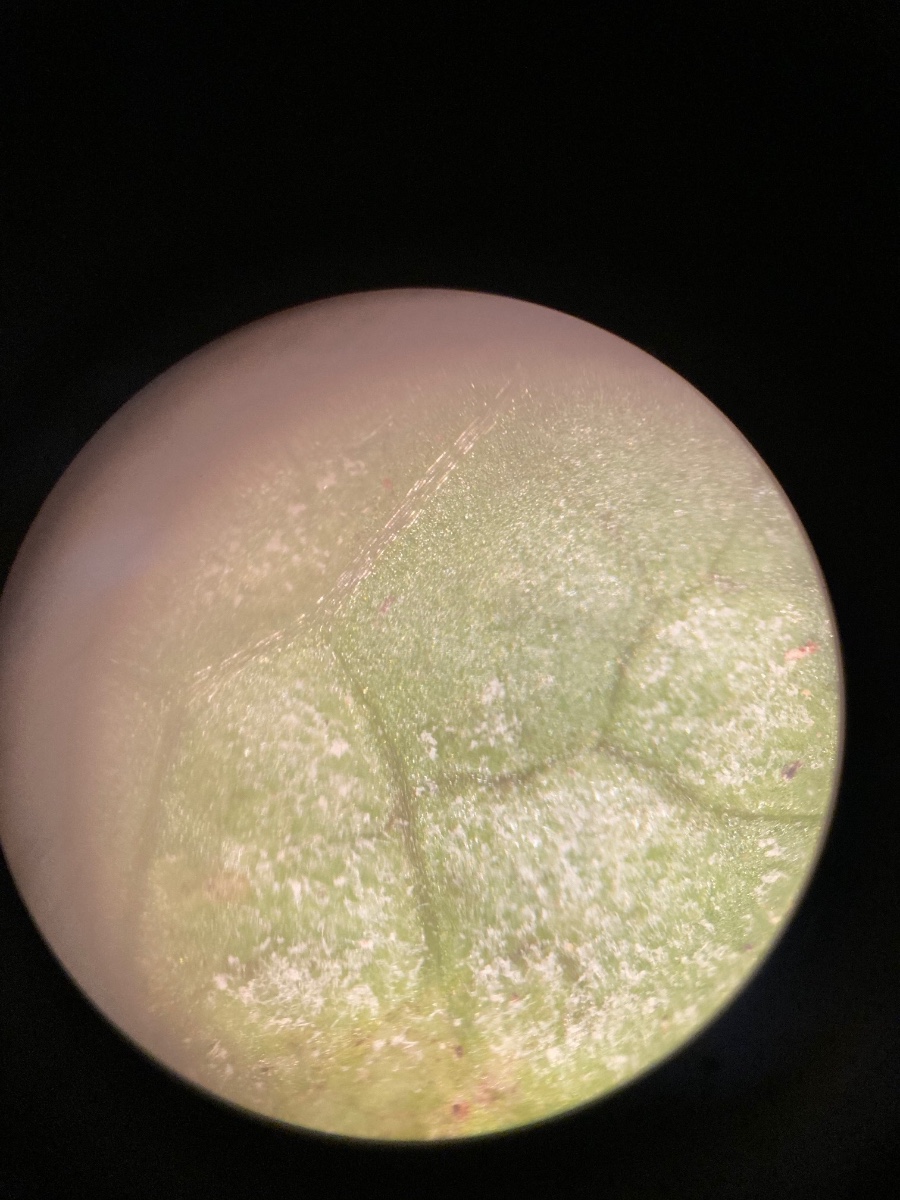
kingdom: Chromista
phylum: Oomycota
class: Peronosporea
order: Peronosporales
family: Peronosporaceae
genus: Hyaloperonospora
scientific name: Hyaloperonospora niessliana
